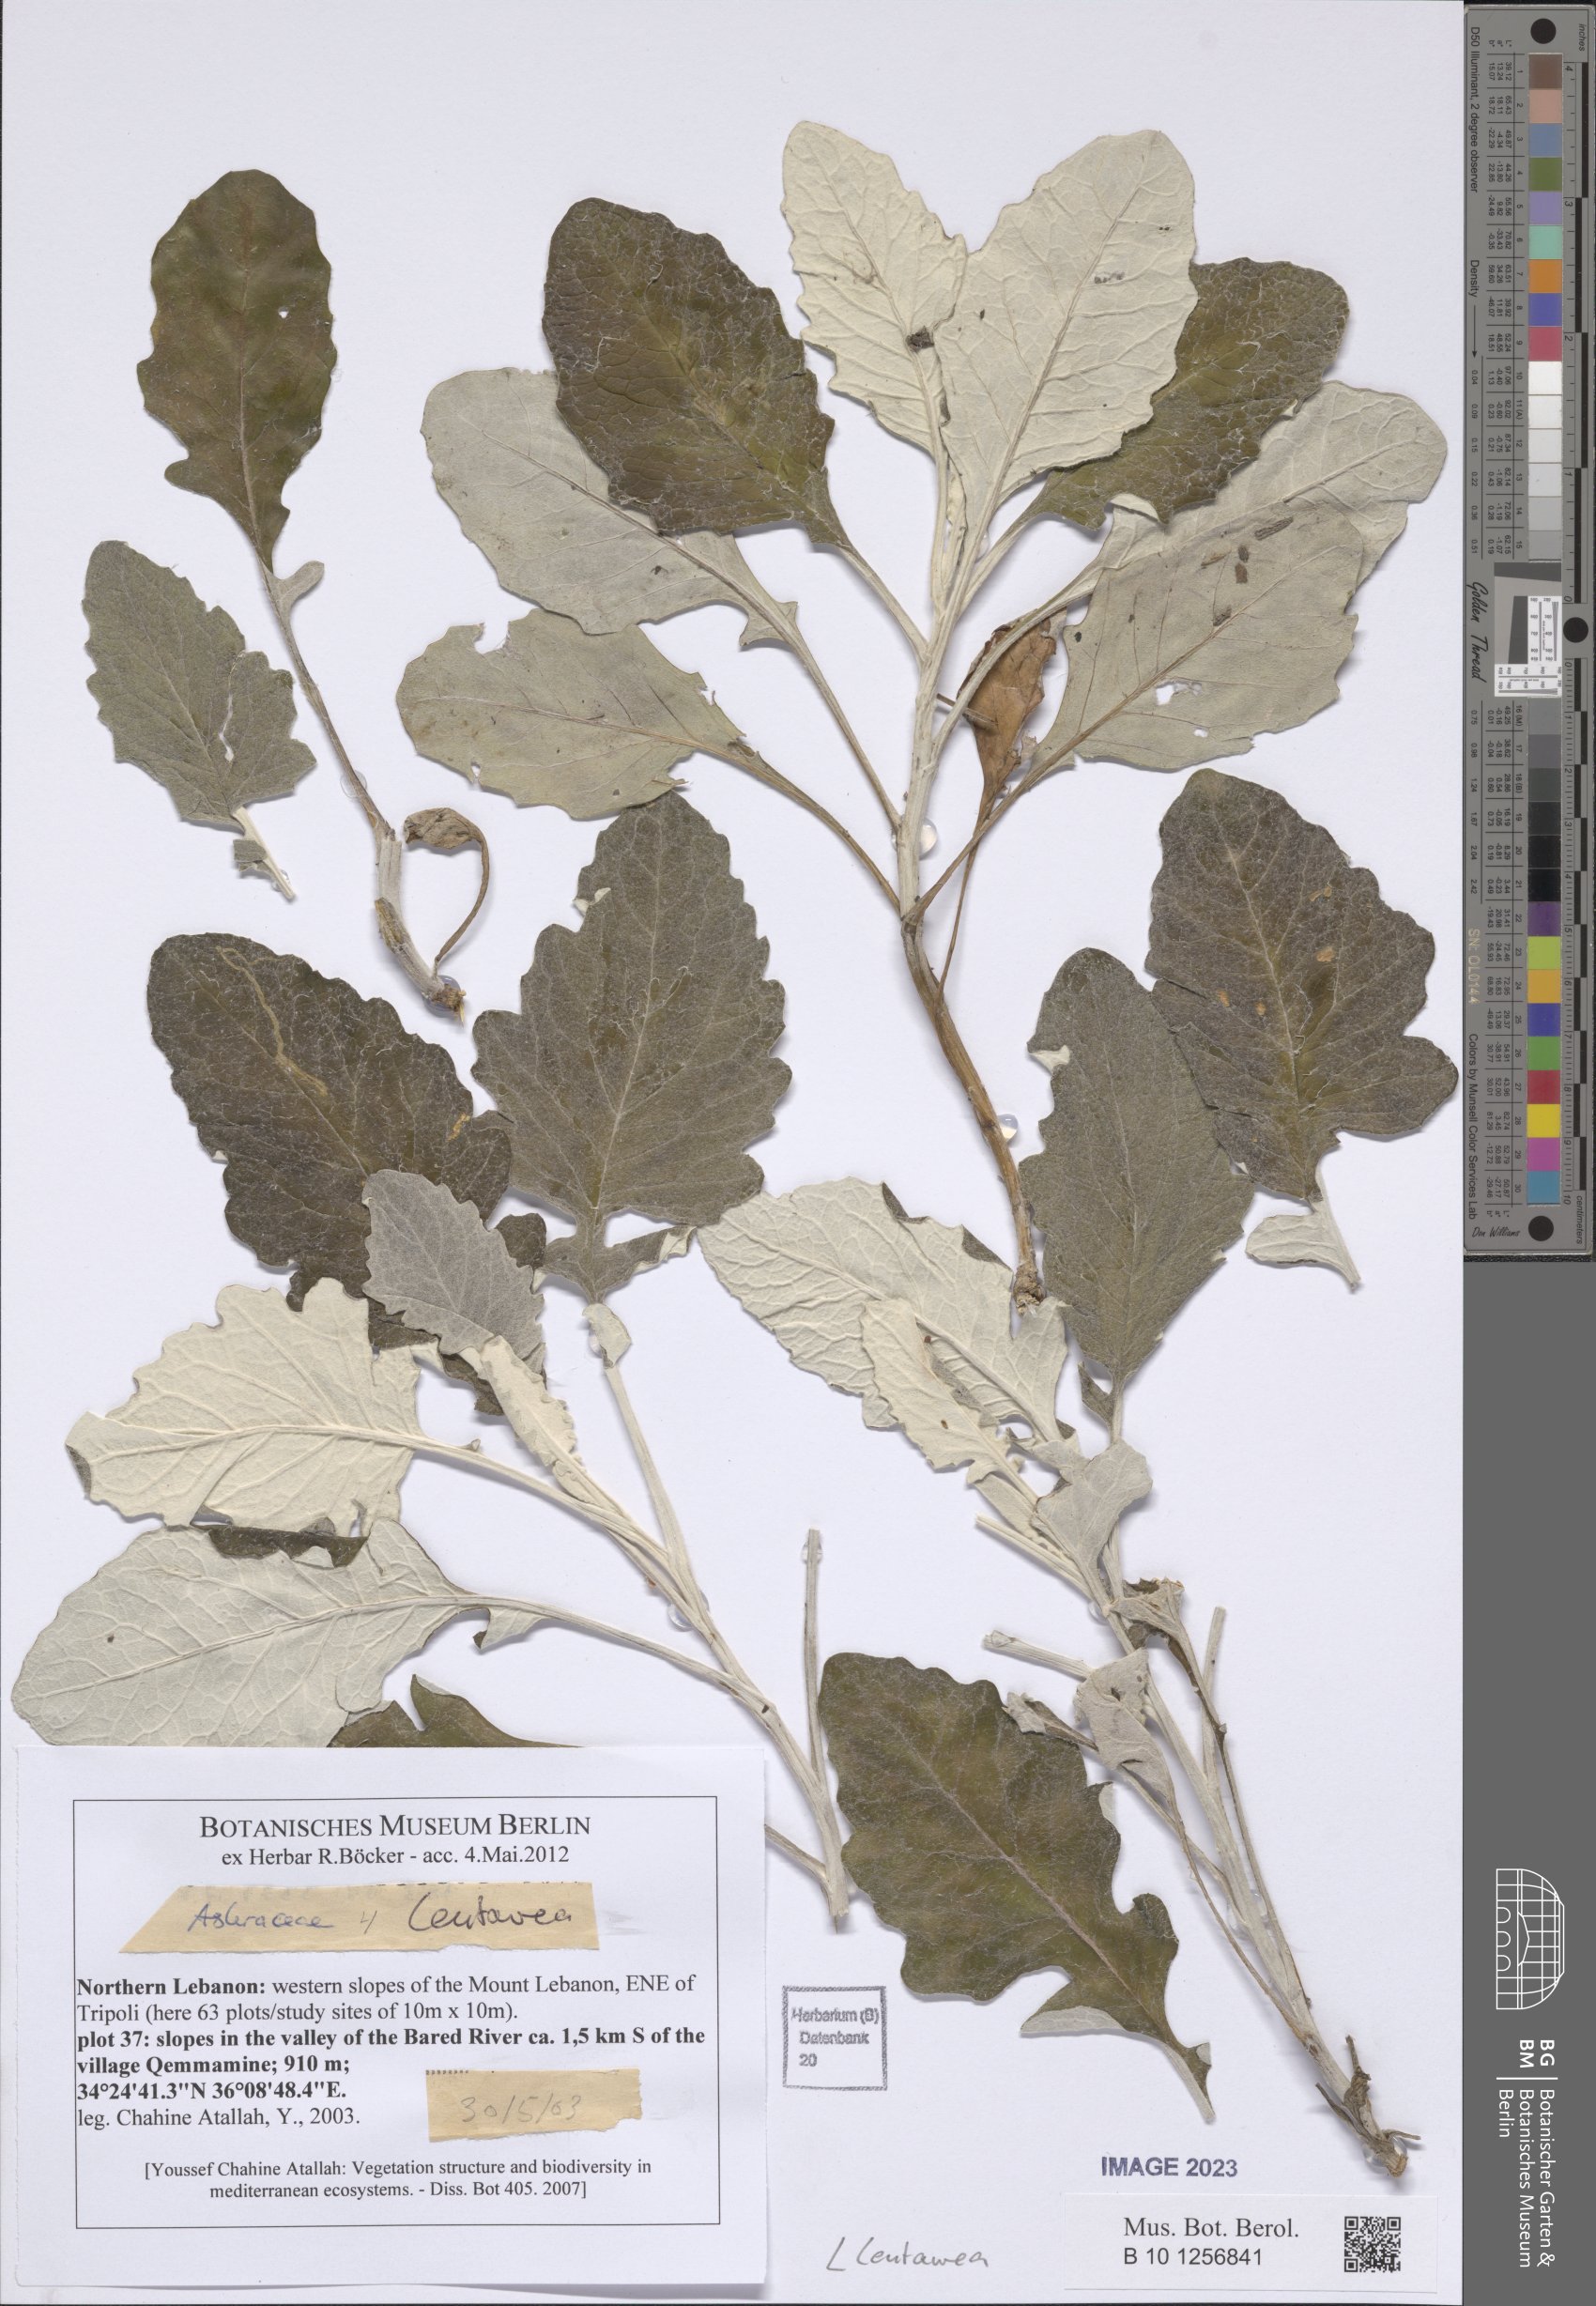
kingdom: Plantae
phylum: Tracheophyta
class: Magnoliopsida
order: Asterales
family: Asteraceae
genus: Centaurea
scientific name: Centaurea
